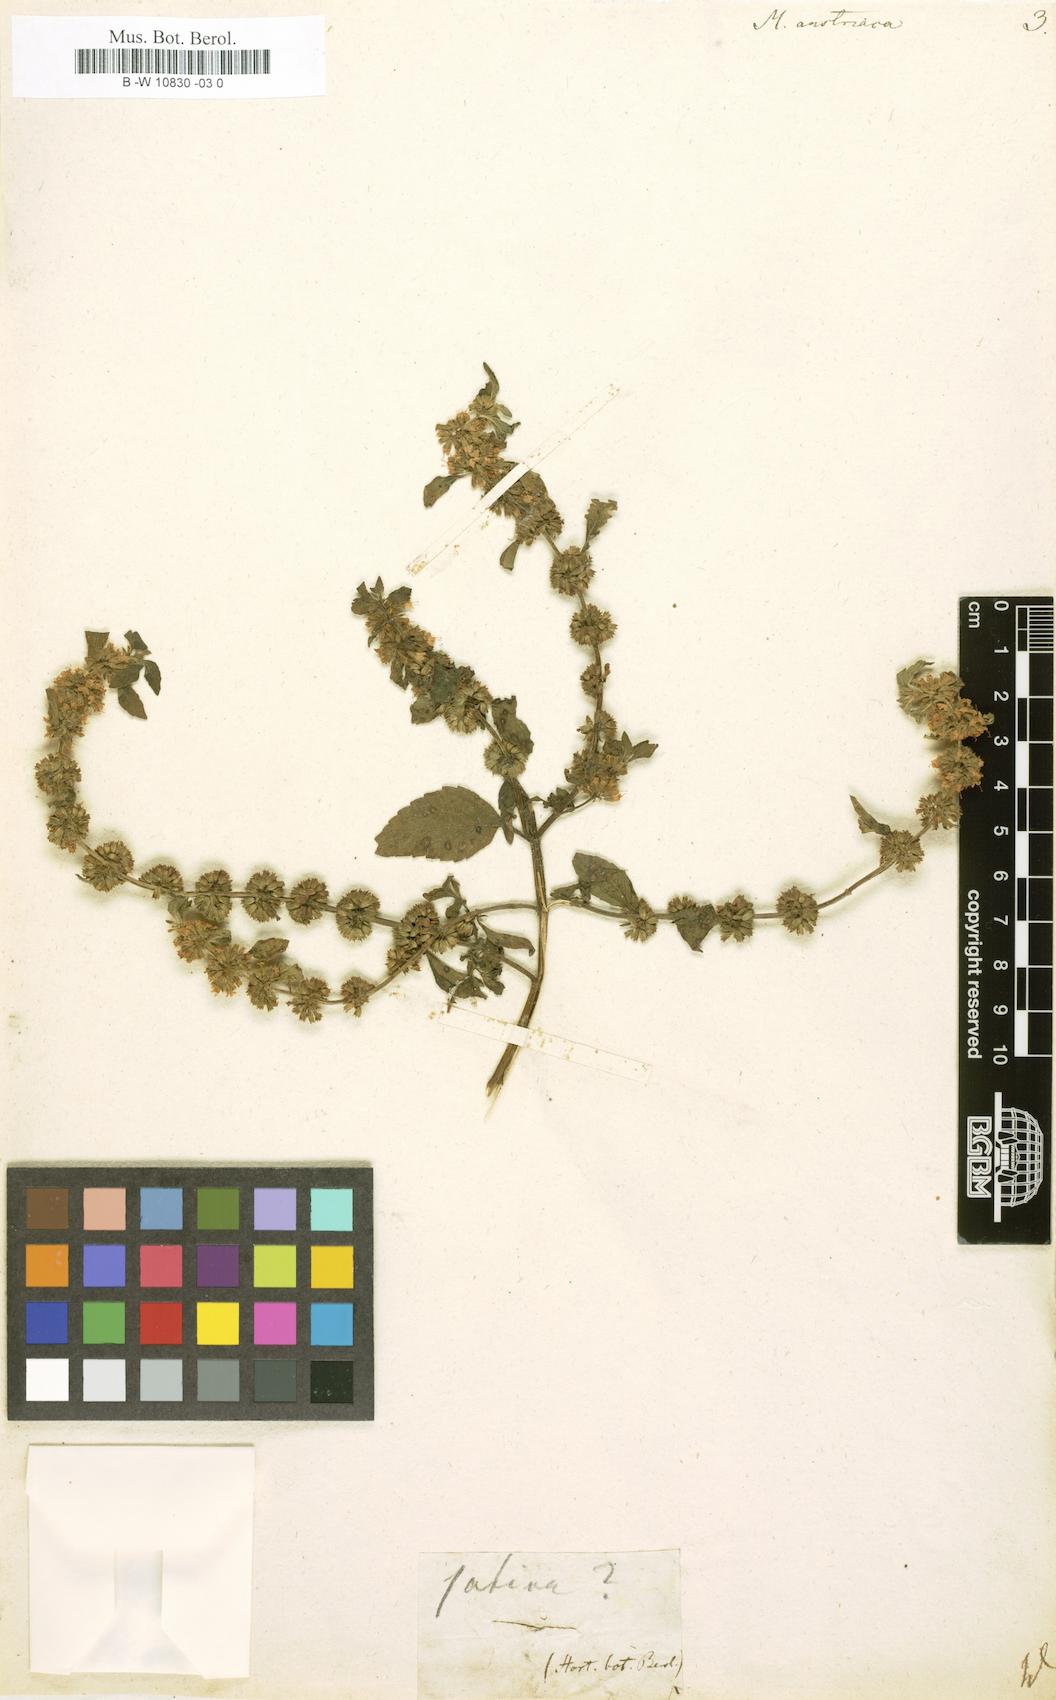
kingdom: Plantae
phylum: Tracheophyta
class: Magnoliopsida
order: Lamiales
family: Lamiaceae
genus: Mentha
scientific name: Mentha arvensis
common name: Corn mint
